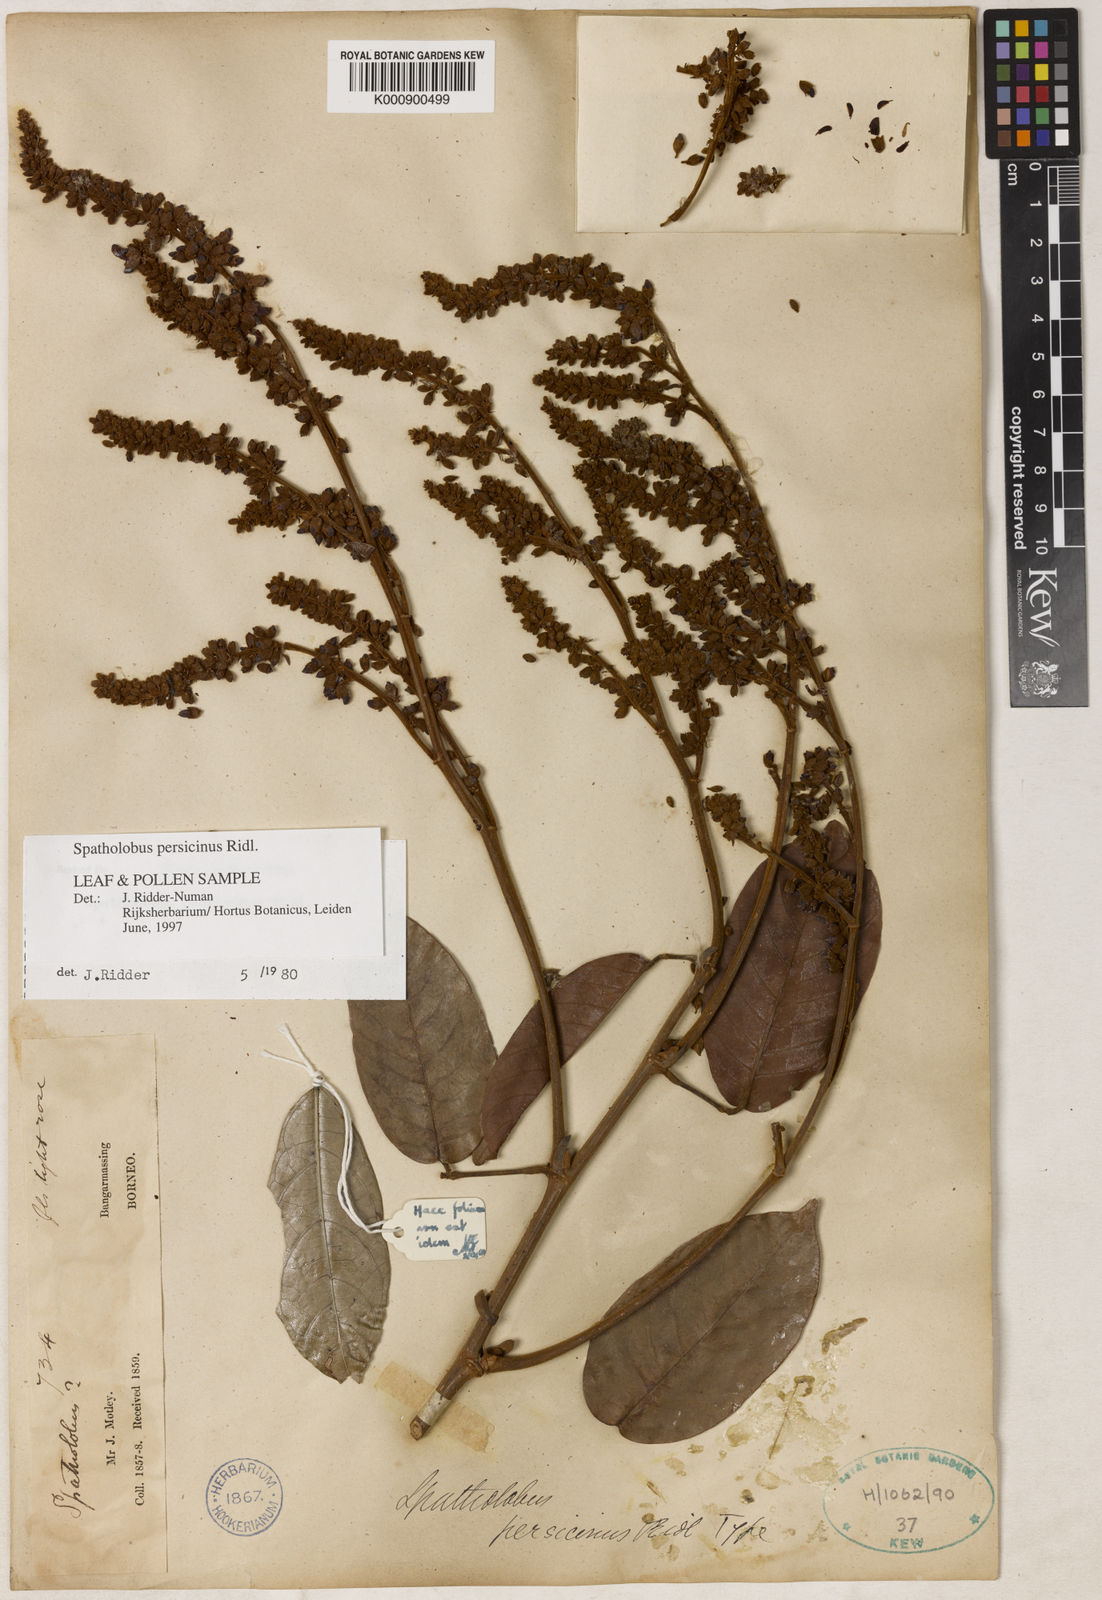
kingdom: Plantae
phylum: Tracheophyta
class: Magnoliopsida
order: Fabales
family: Fabaceae
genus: Spatholobus
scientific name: Spatholobus persicinus
